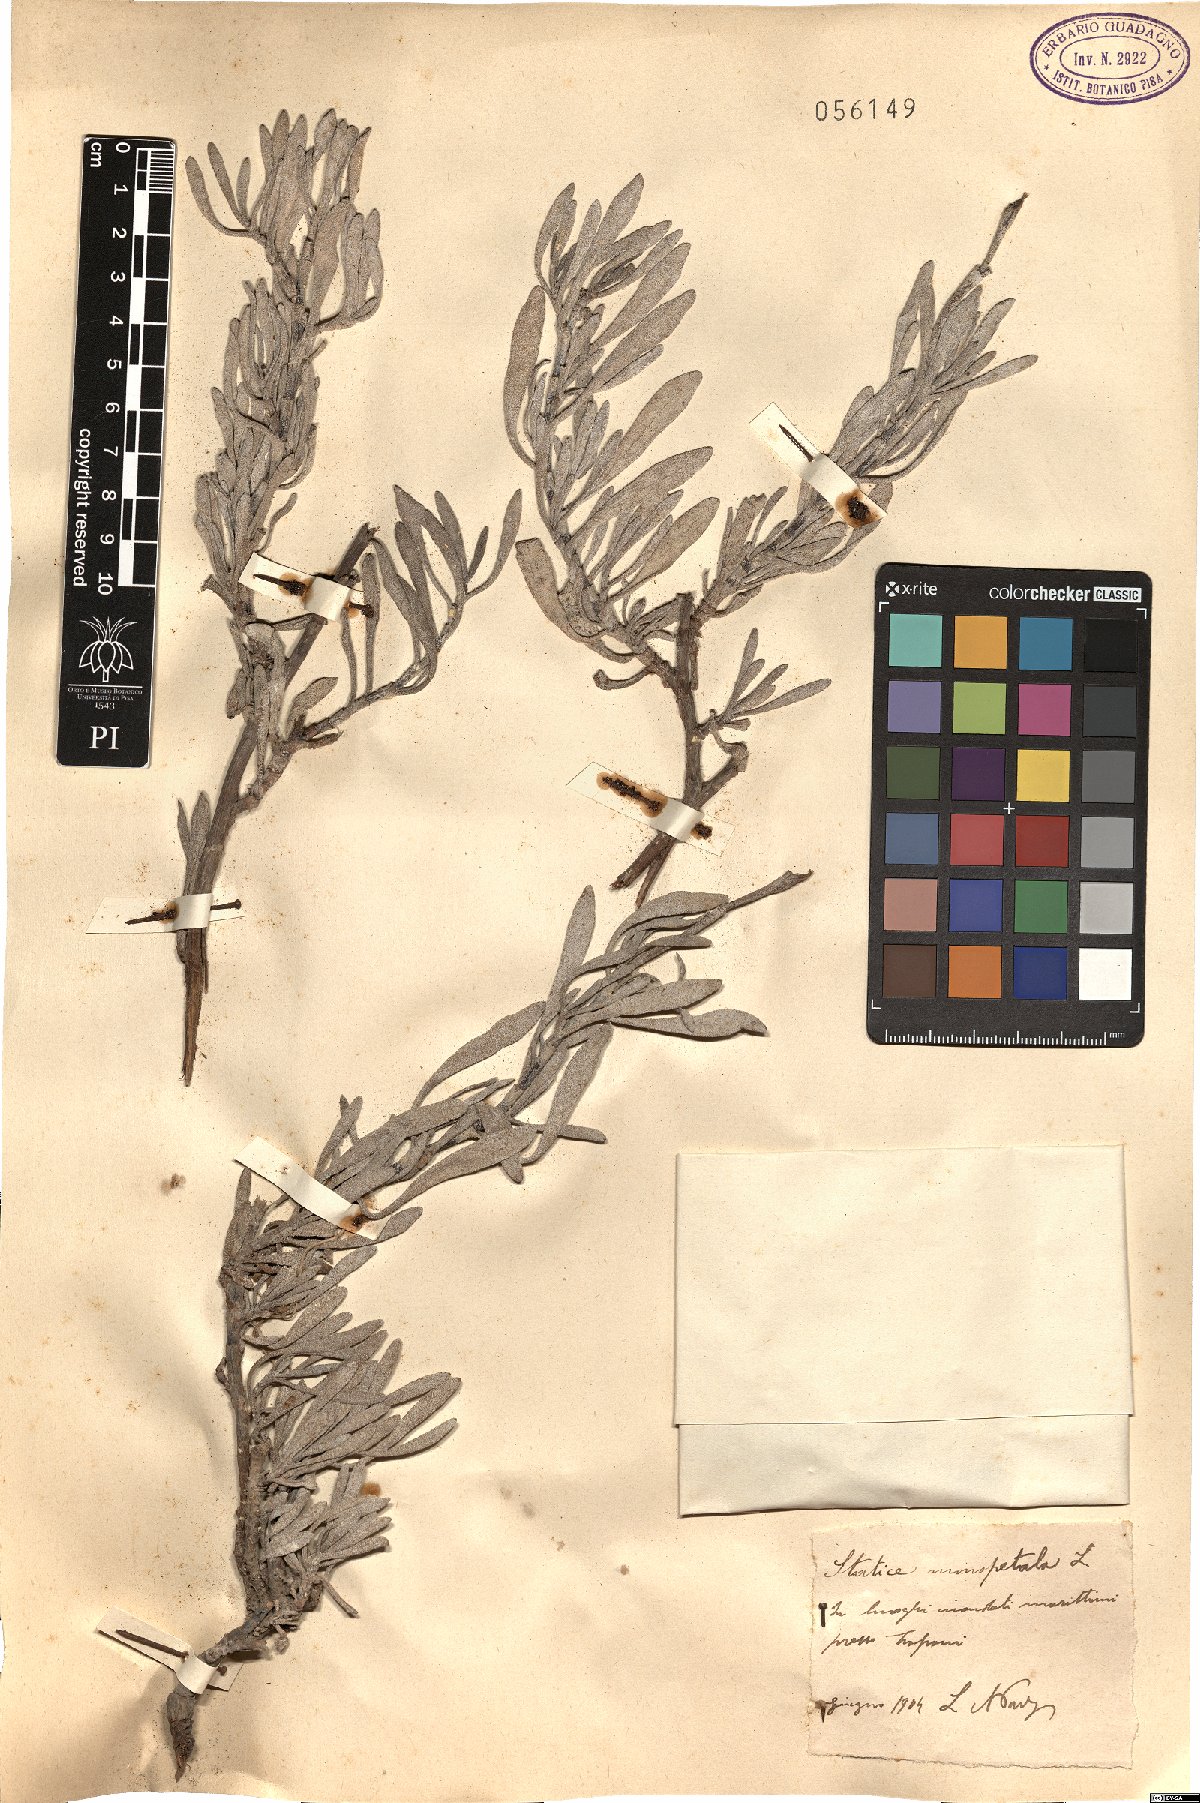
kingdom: Plantae
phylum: Tracheophyta
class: Magnoliopsida
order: Caryophyllales
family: Plumbaginaceae
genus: Limoniastrum
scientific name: Limoniastrum monopetalum
